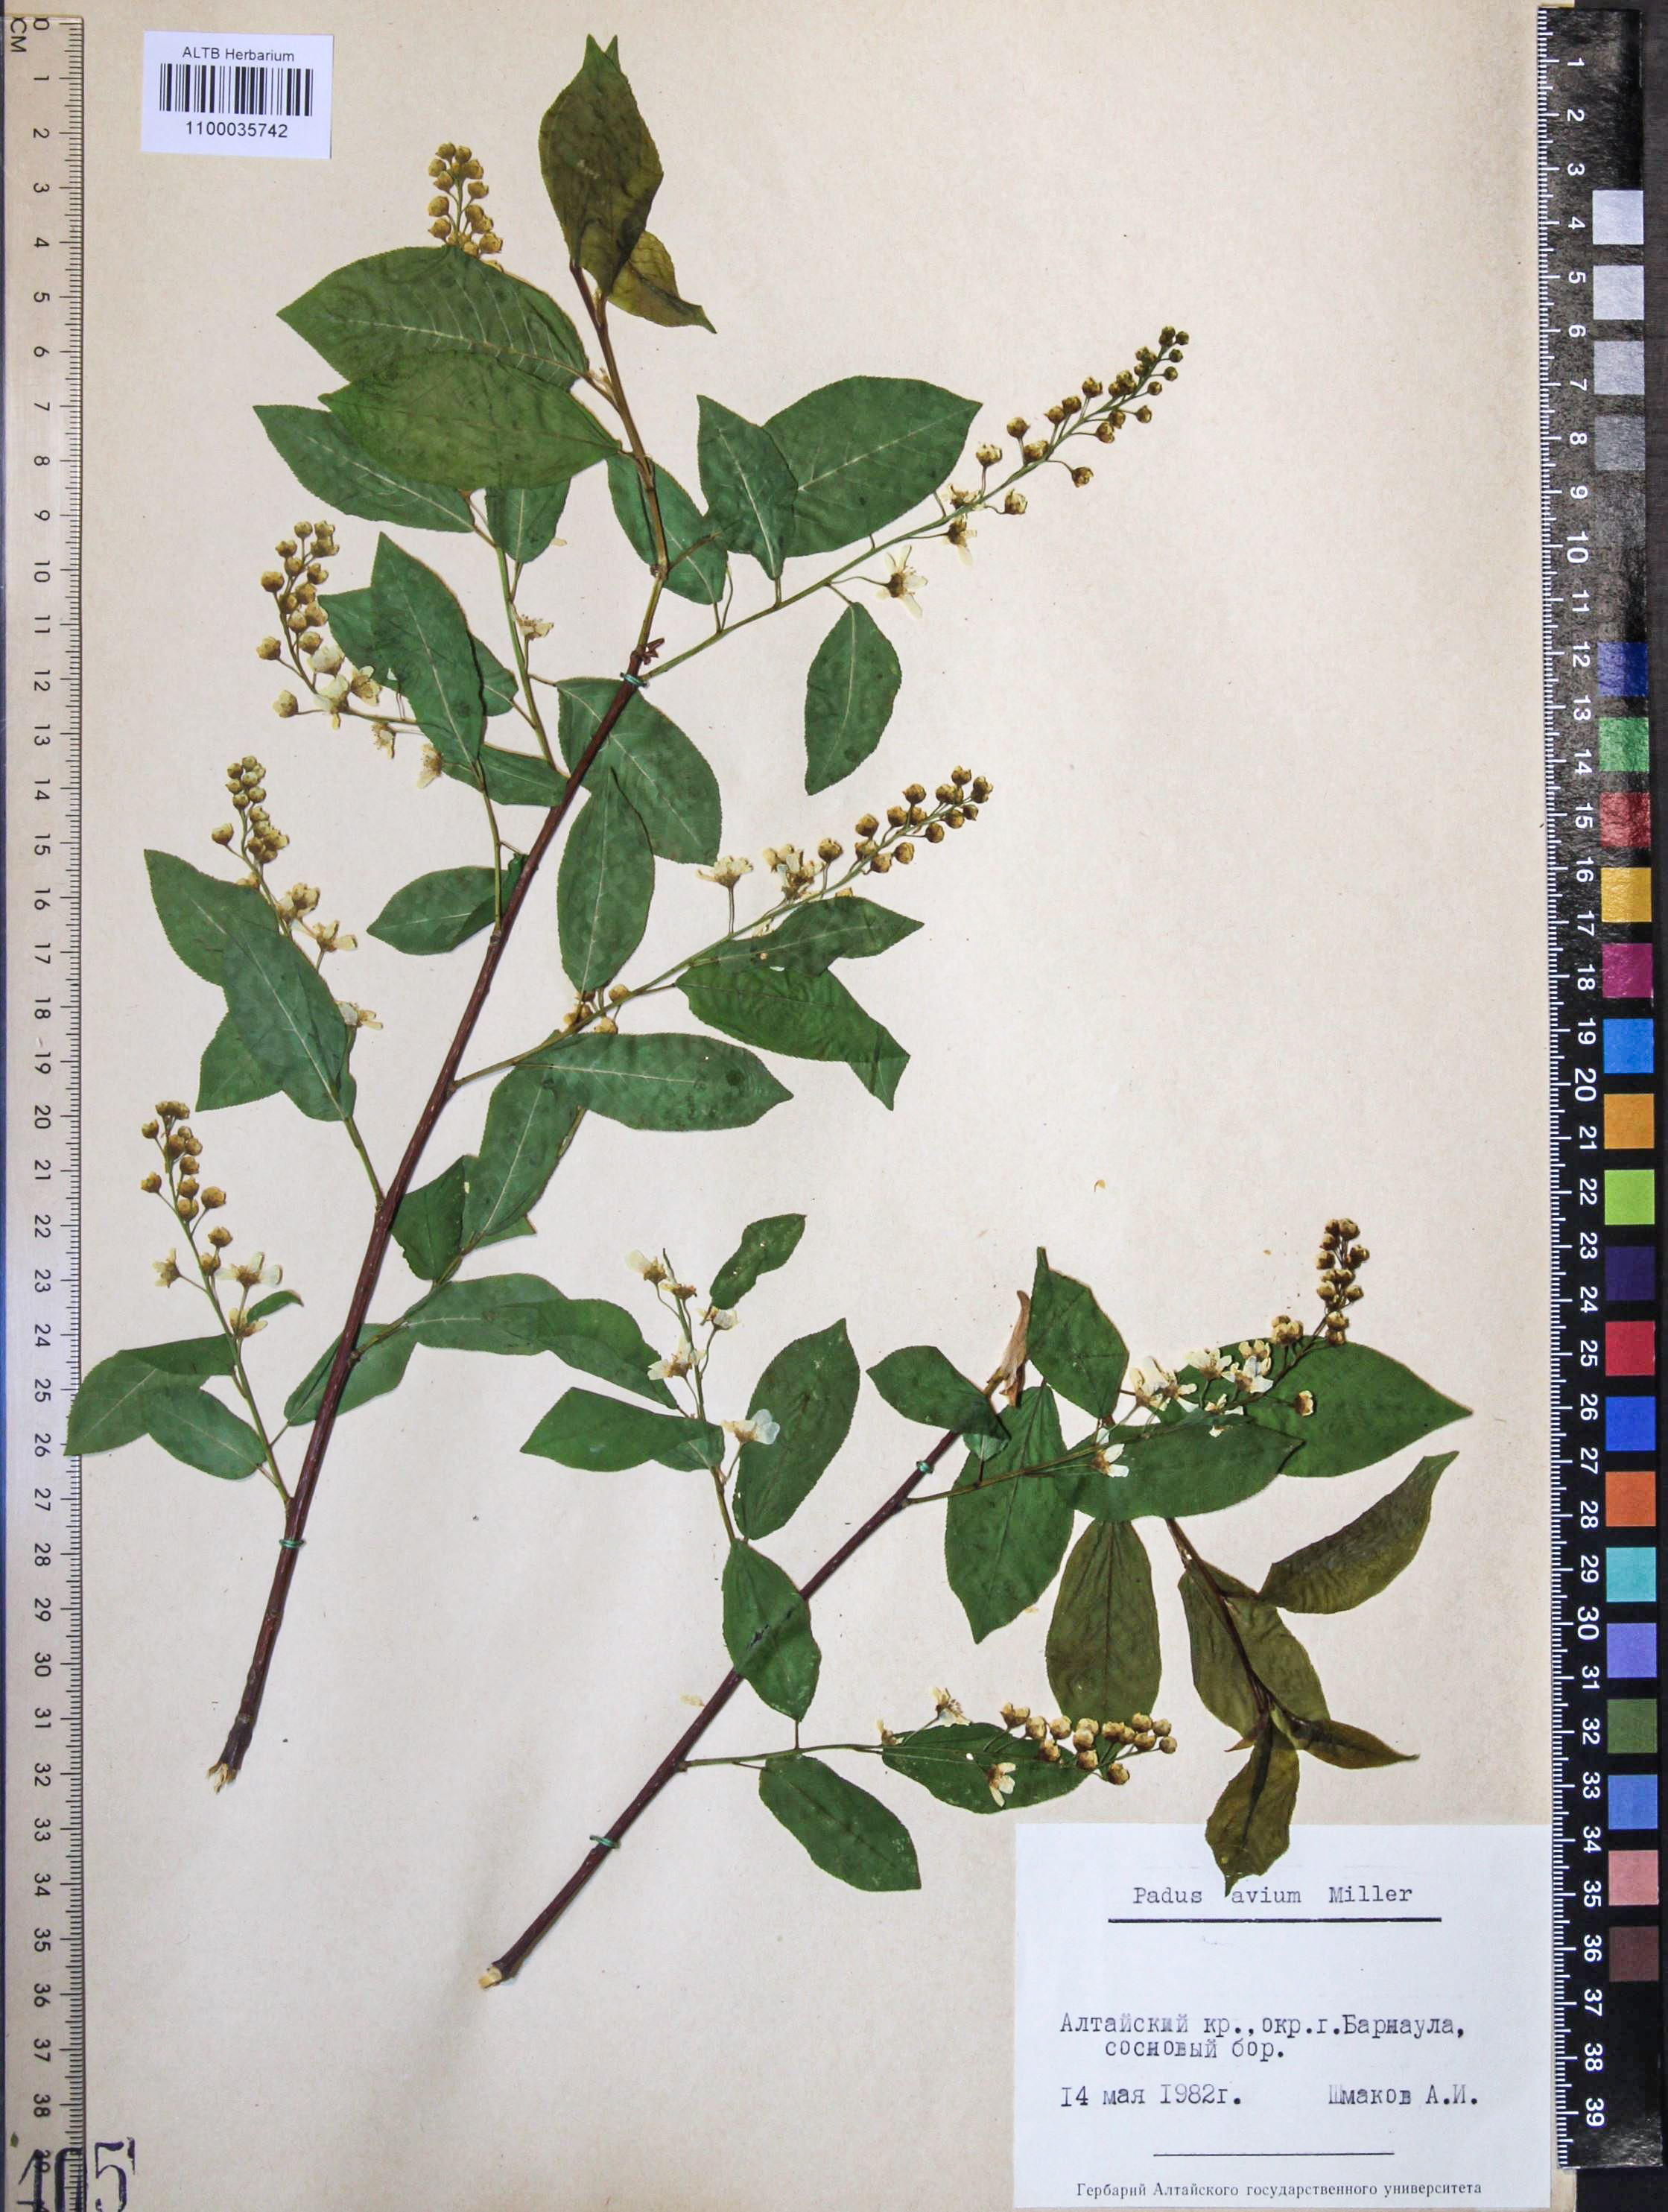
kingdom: Plantae
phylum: Tracheophyta
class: Magnoliopsida
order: Rosales
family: Rosaceae
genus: Prunus
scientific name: Prunus padus
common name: Bird cherry
